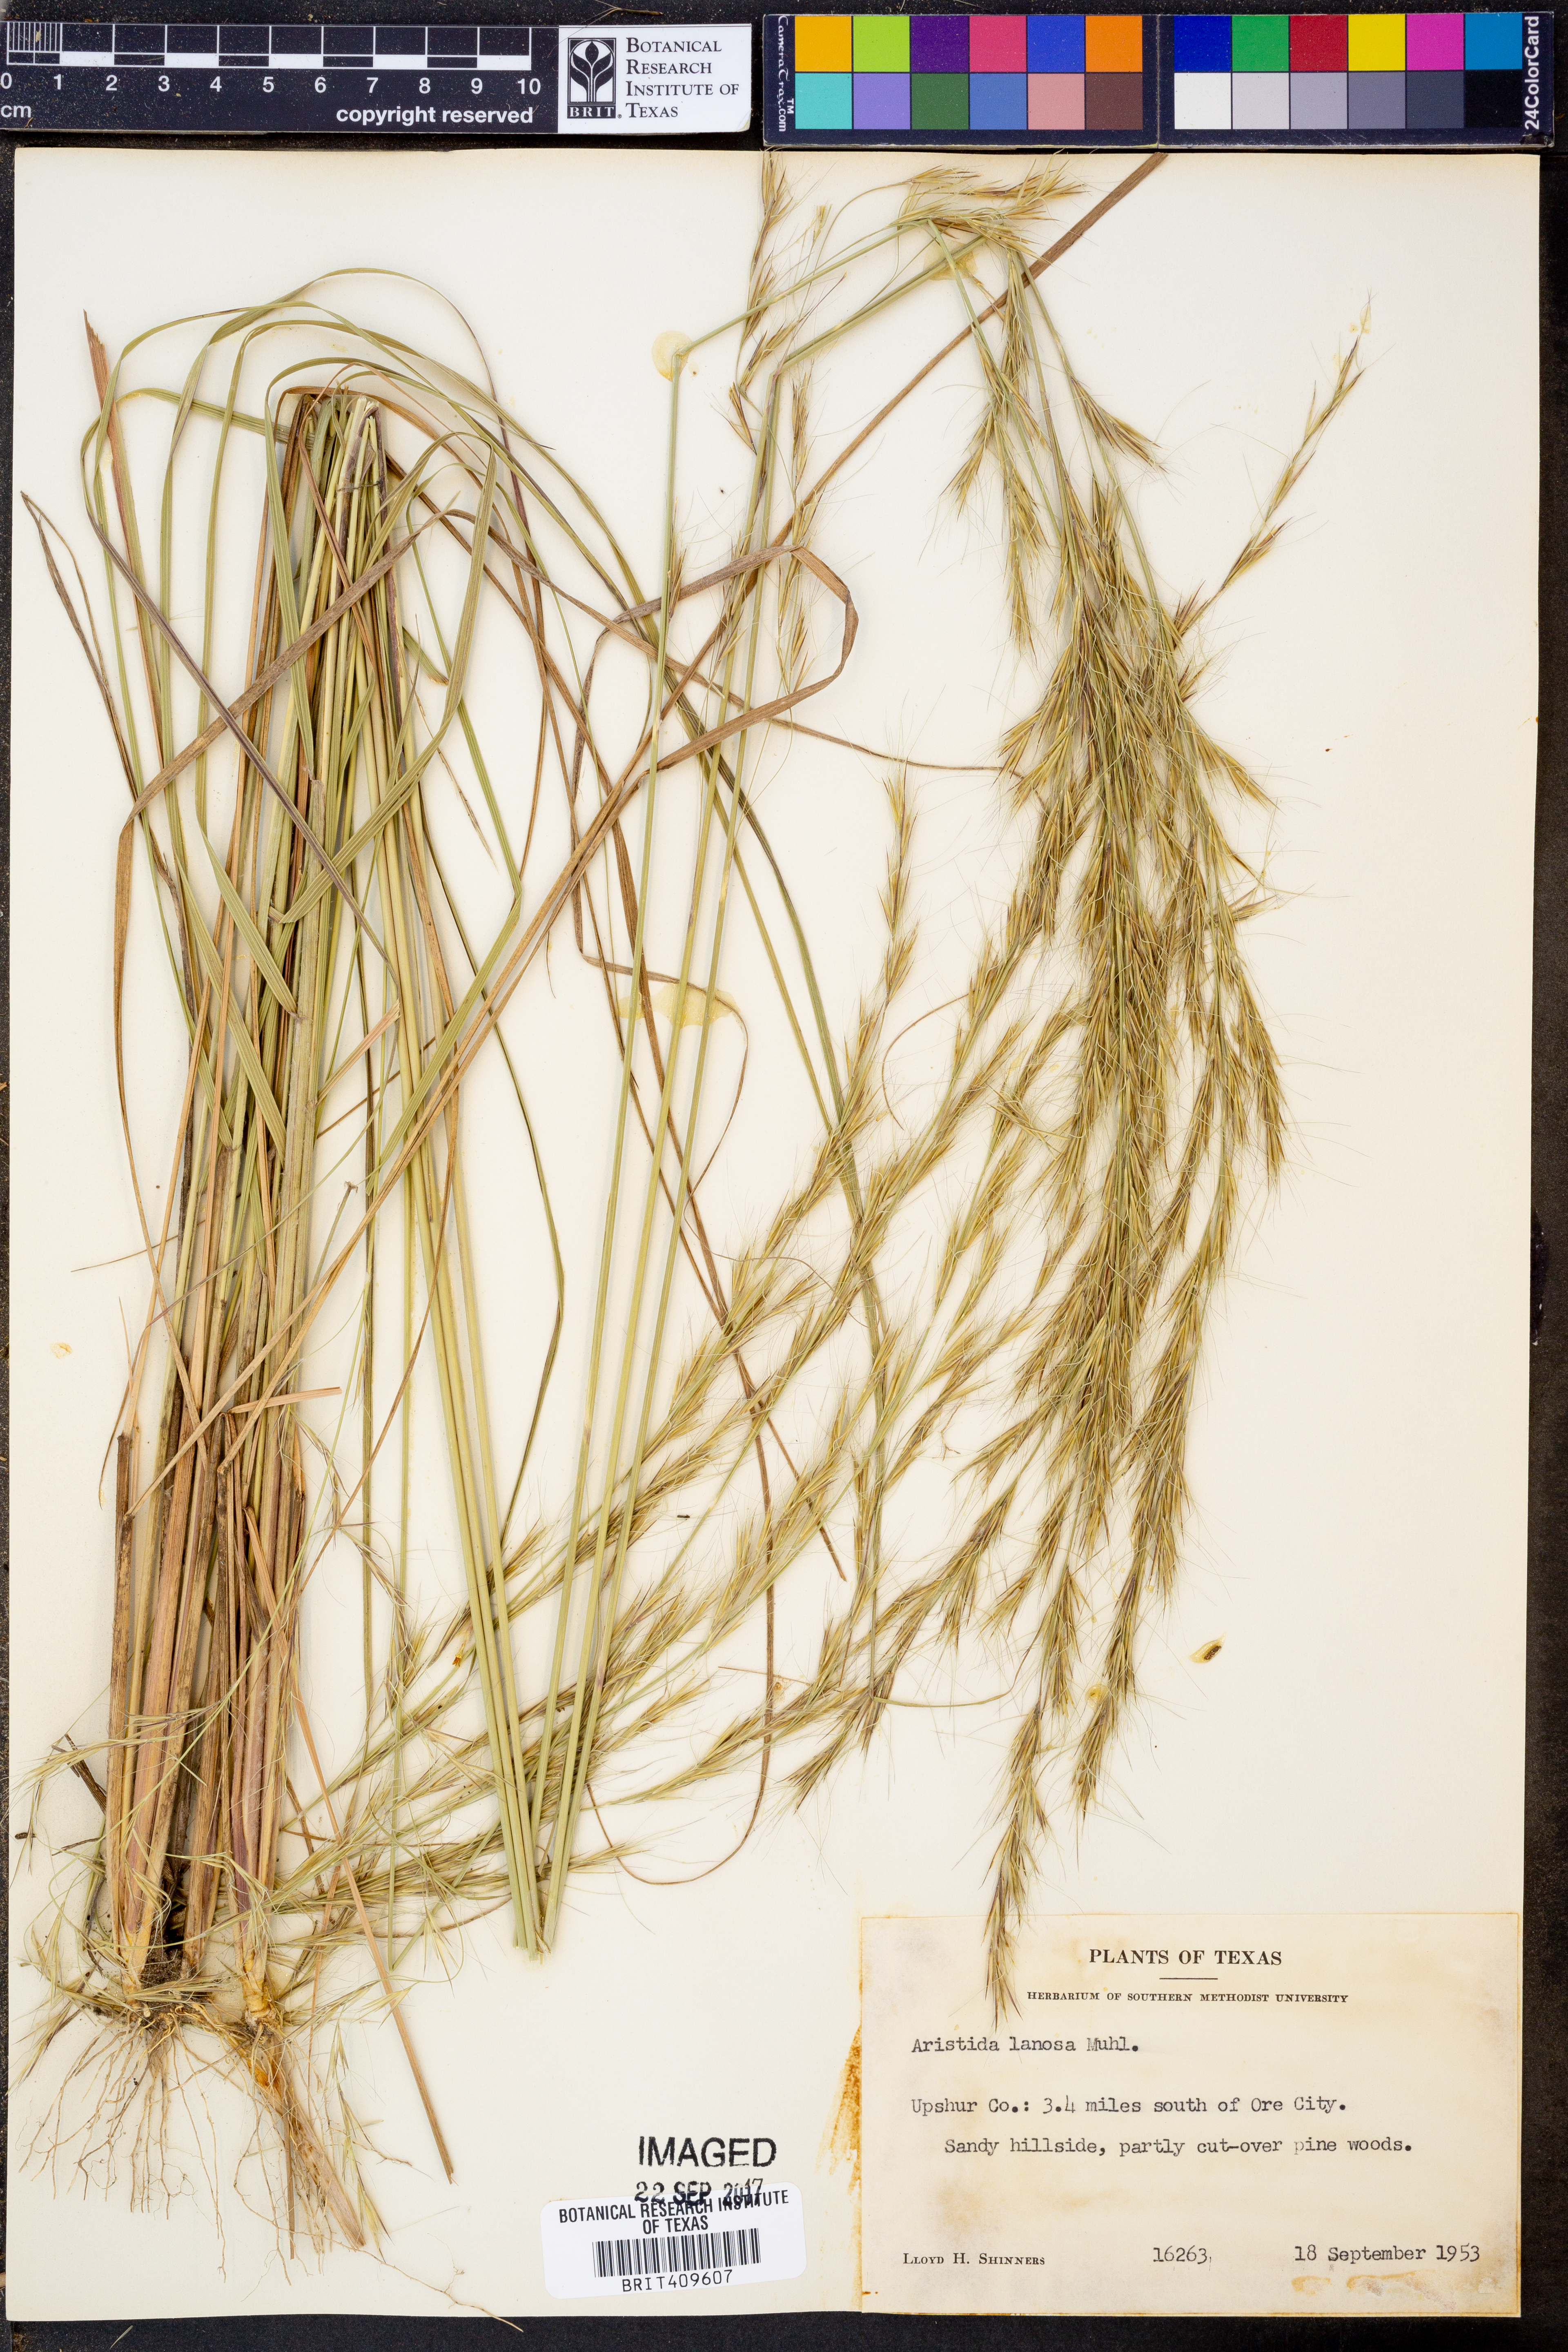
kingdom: Plantae
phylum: Tracheophyta
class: Liliopsida
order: Poales
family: Poaceae
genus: Aristida
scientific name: Aristida lanosa
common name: Woolly three-awn
